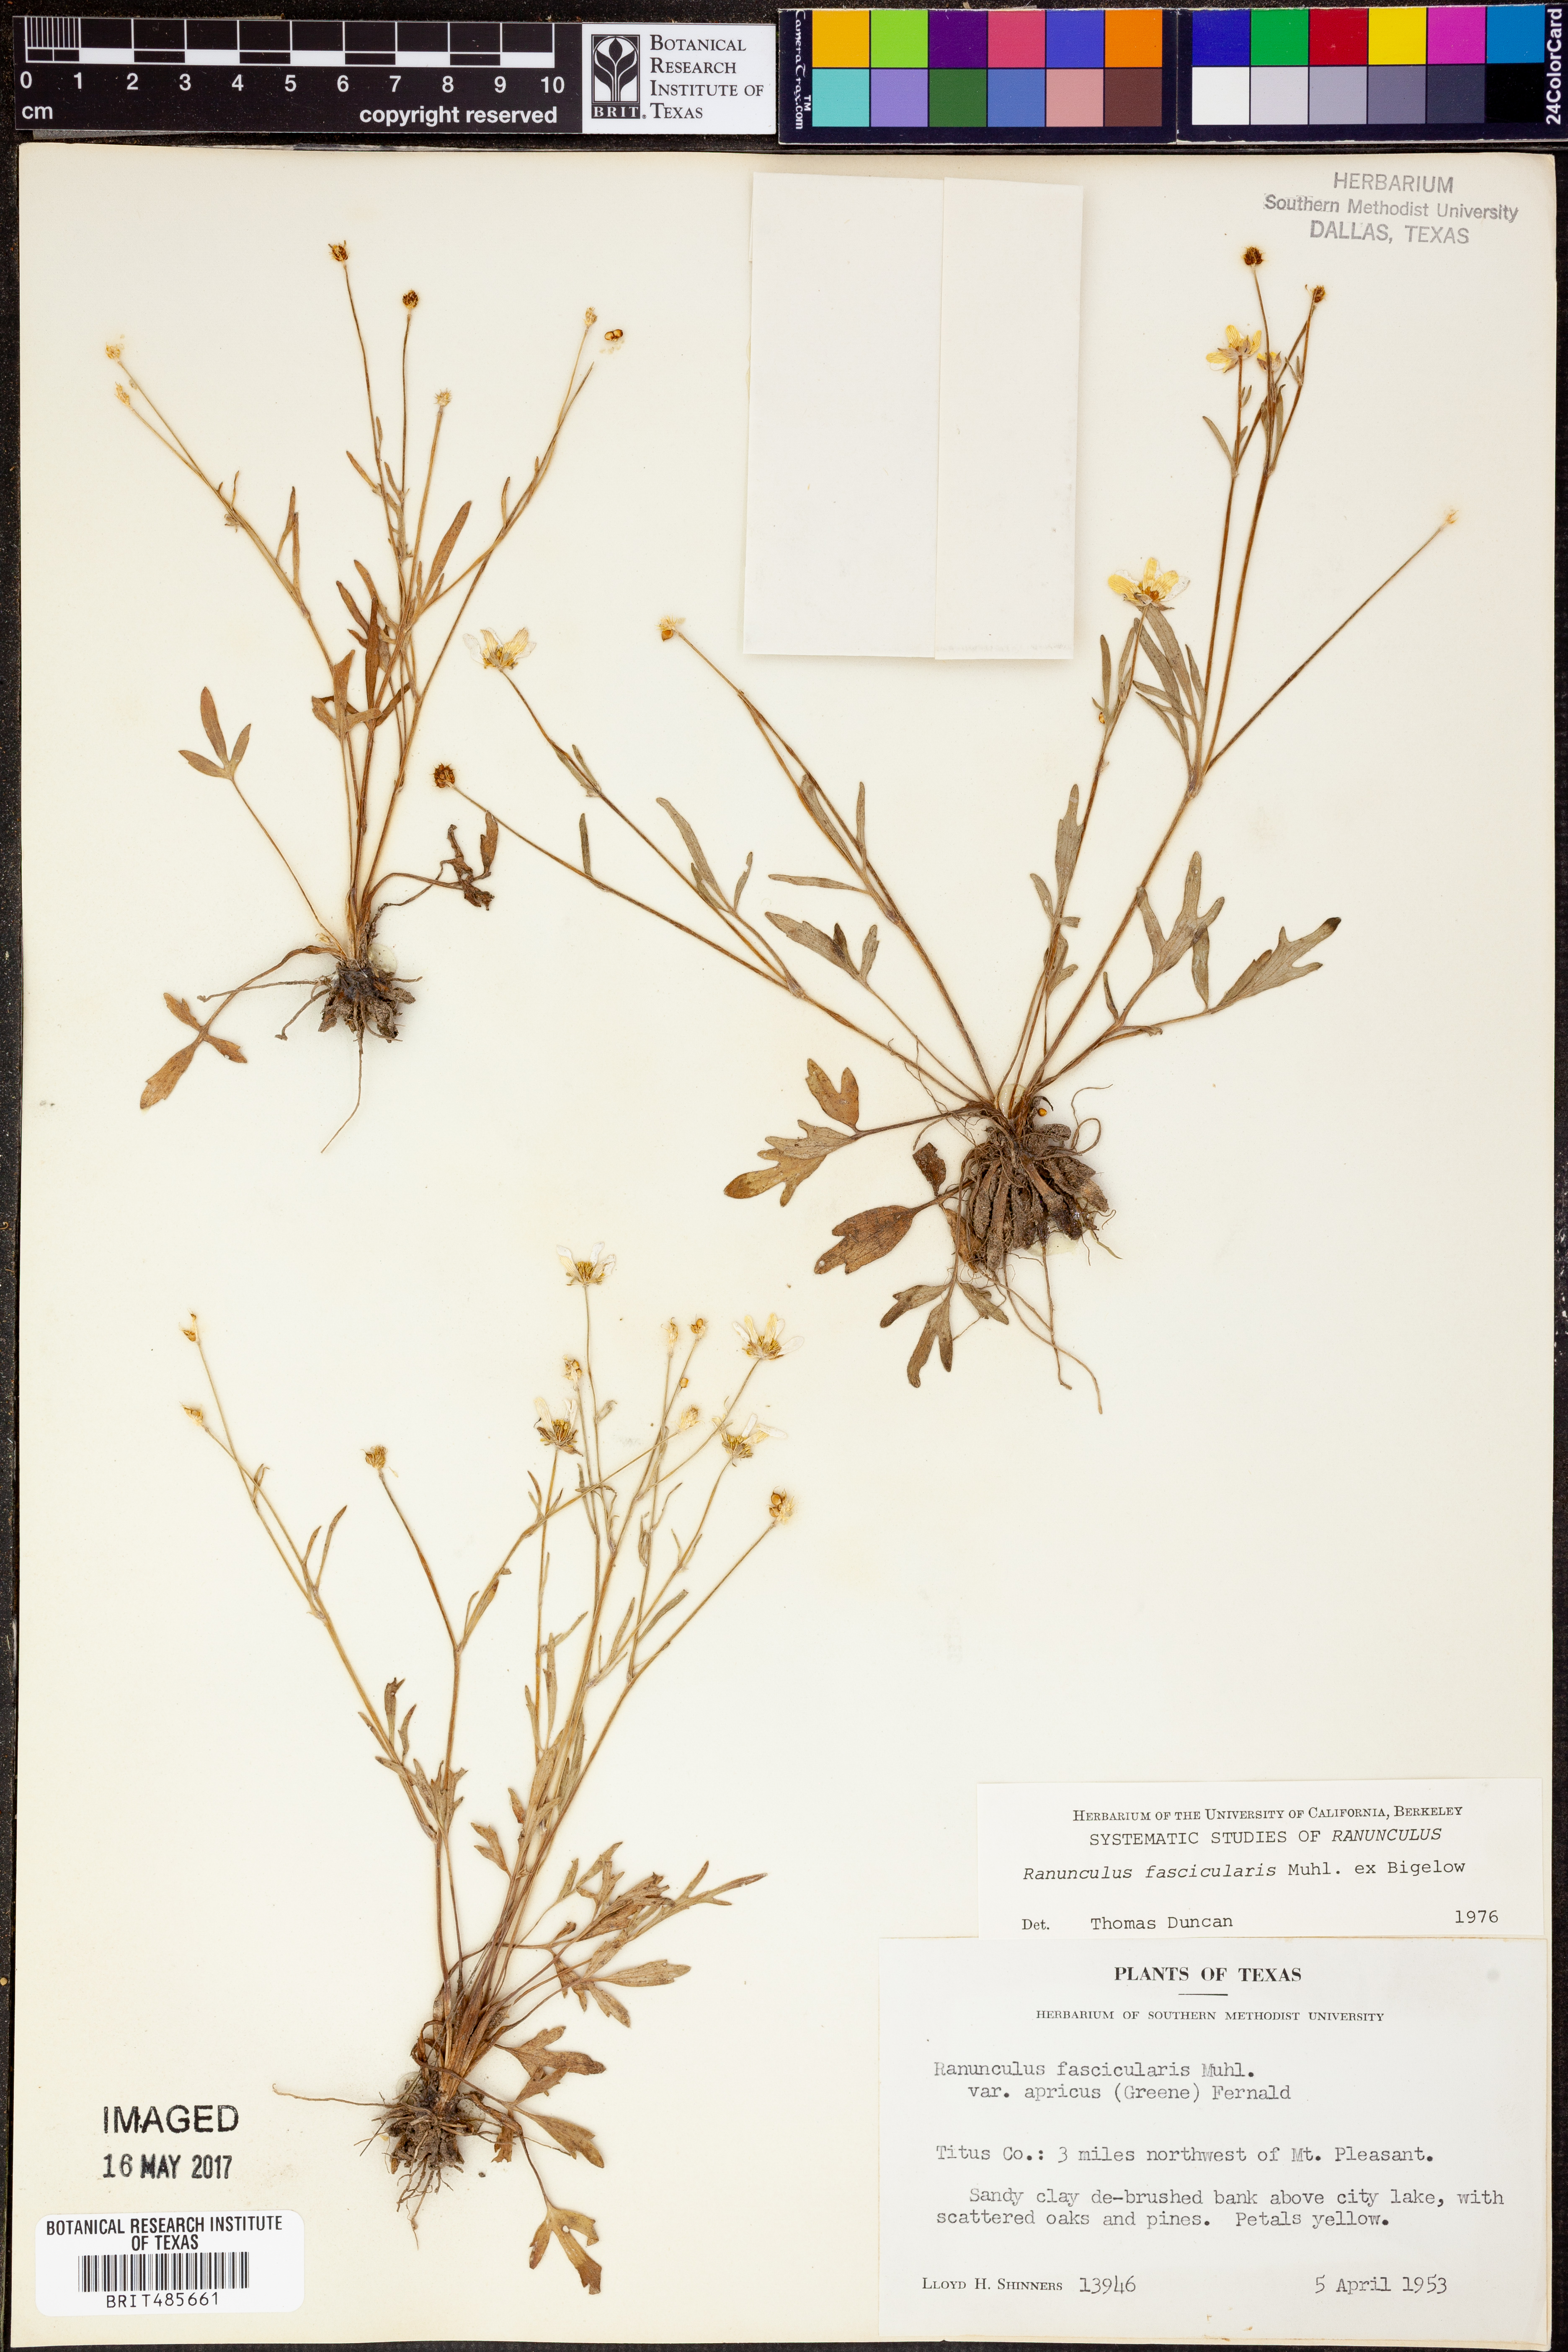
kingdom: Plantae
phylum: Tracheophyta
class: Magnoliopsida
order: Ranunculales
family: Ranunculaceae
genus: Ranunculus
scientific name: Ranunculus fascicularis
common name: Early buttercup
